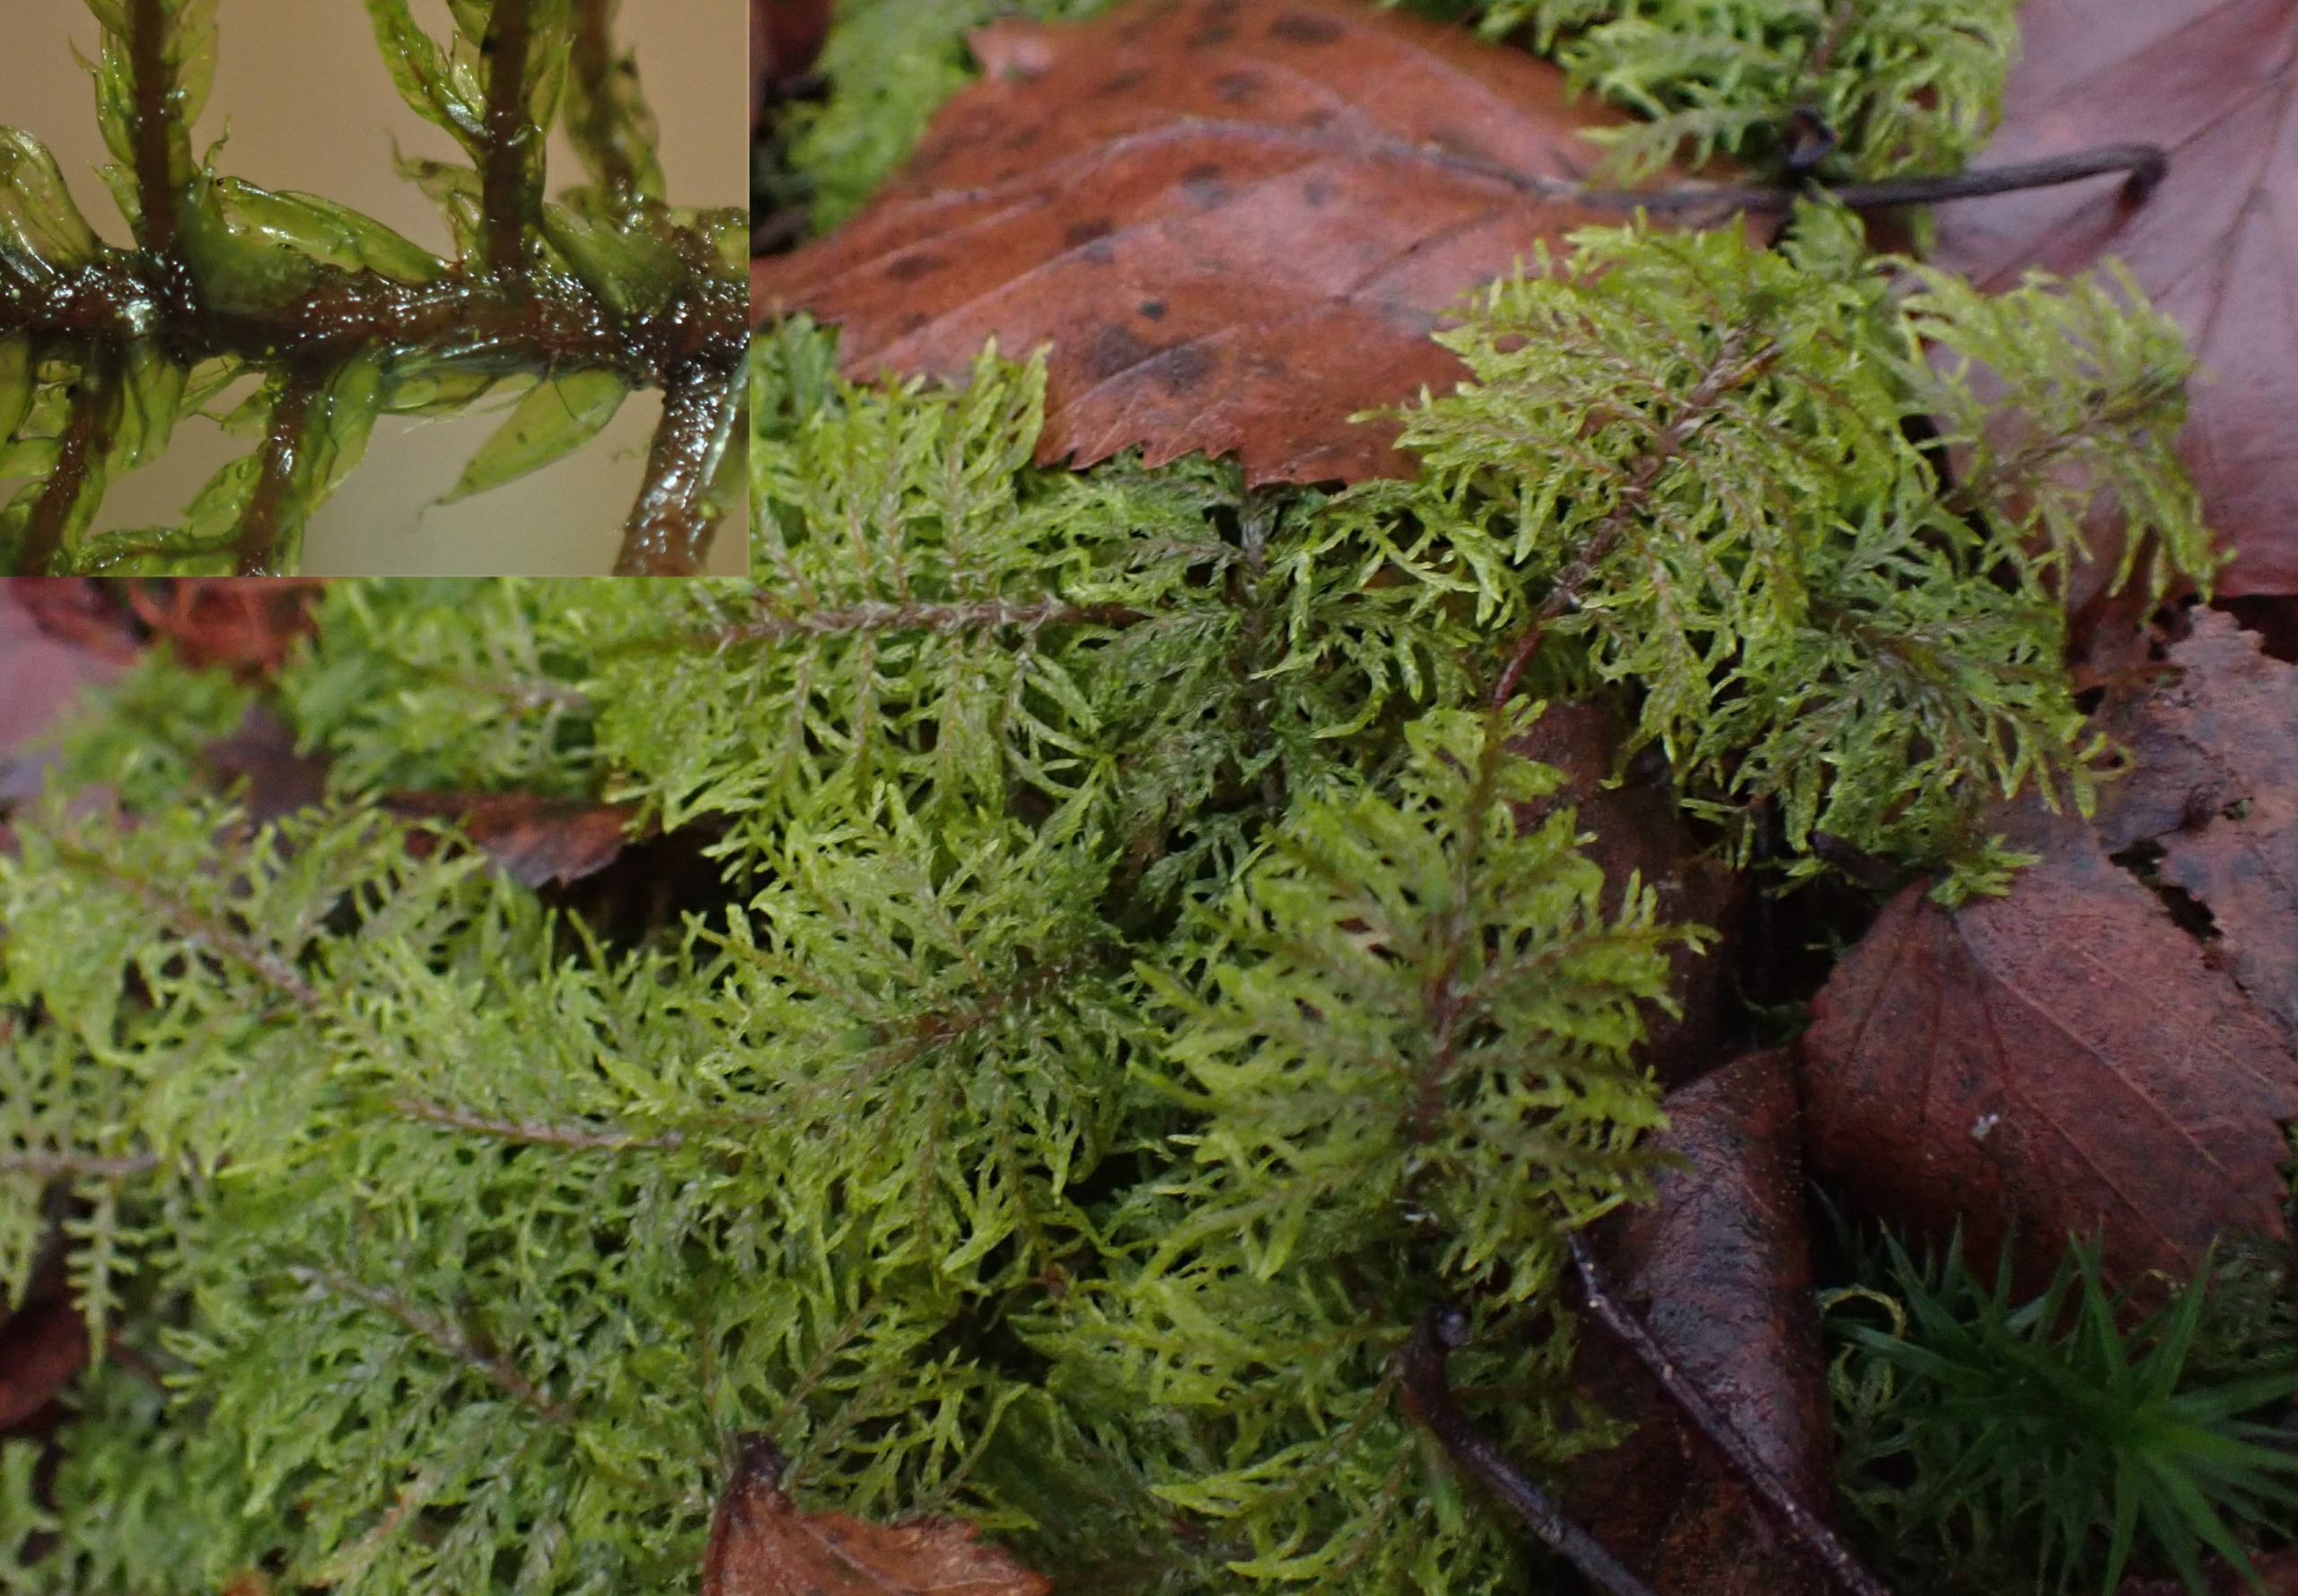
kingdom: Plantae
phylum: Bryophyta
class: Bryopsida
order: Hypnales
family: Hylocomiaceae
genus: Hylocomium
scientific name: Hylocomium splendens
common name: Almindelig etagemos
